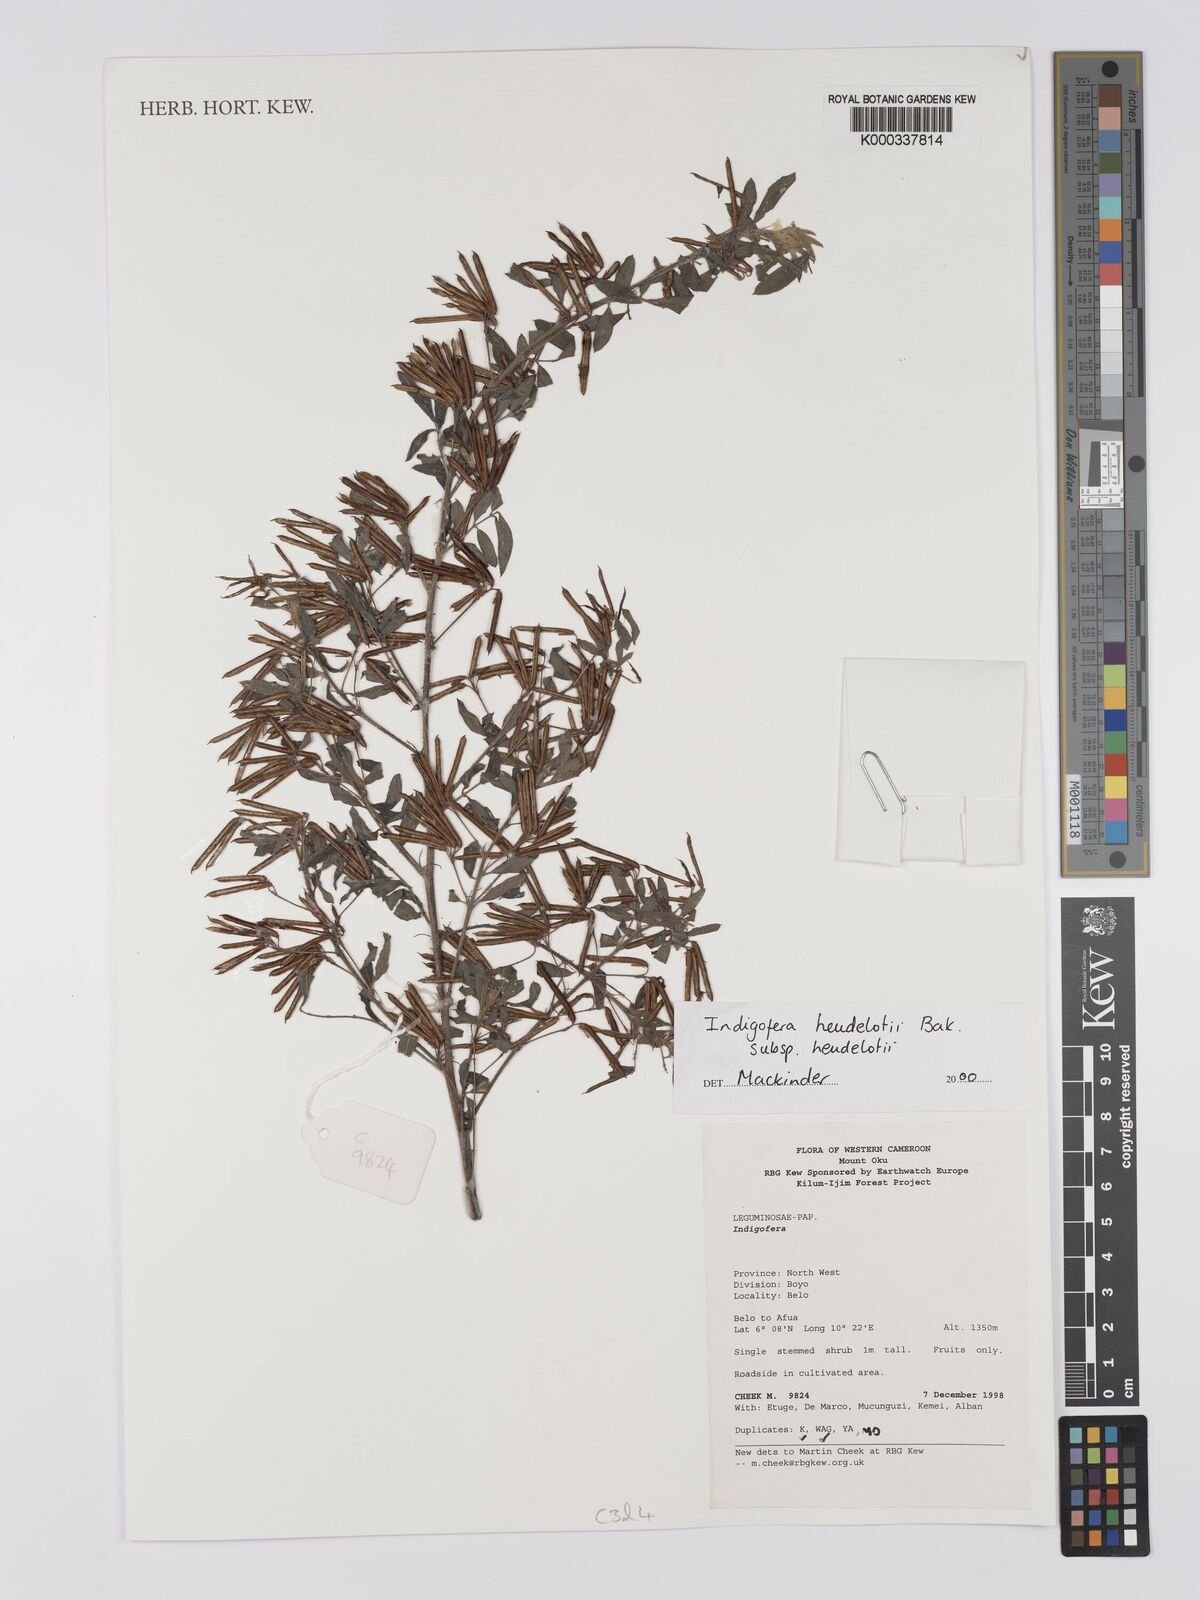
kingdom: Plantae
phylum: Tracheophyta
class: Magnoliopsida
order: Fabales
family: Fabaceae
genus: Indigofera
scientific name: Indigofera heudelotii
